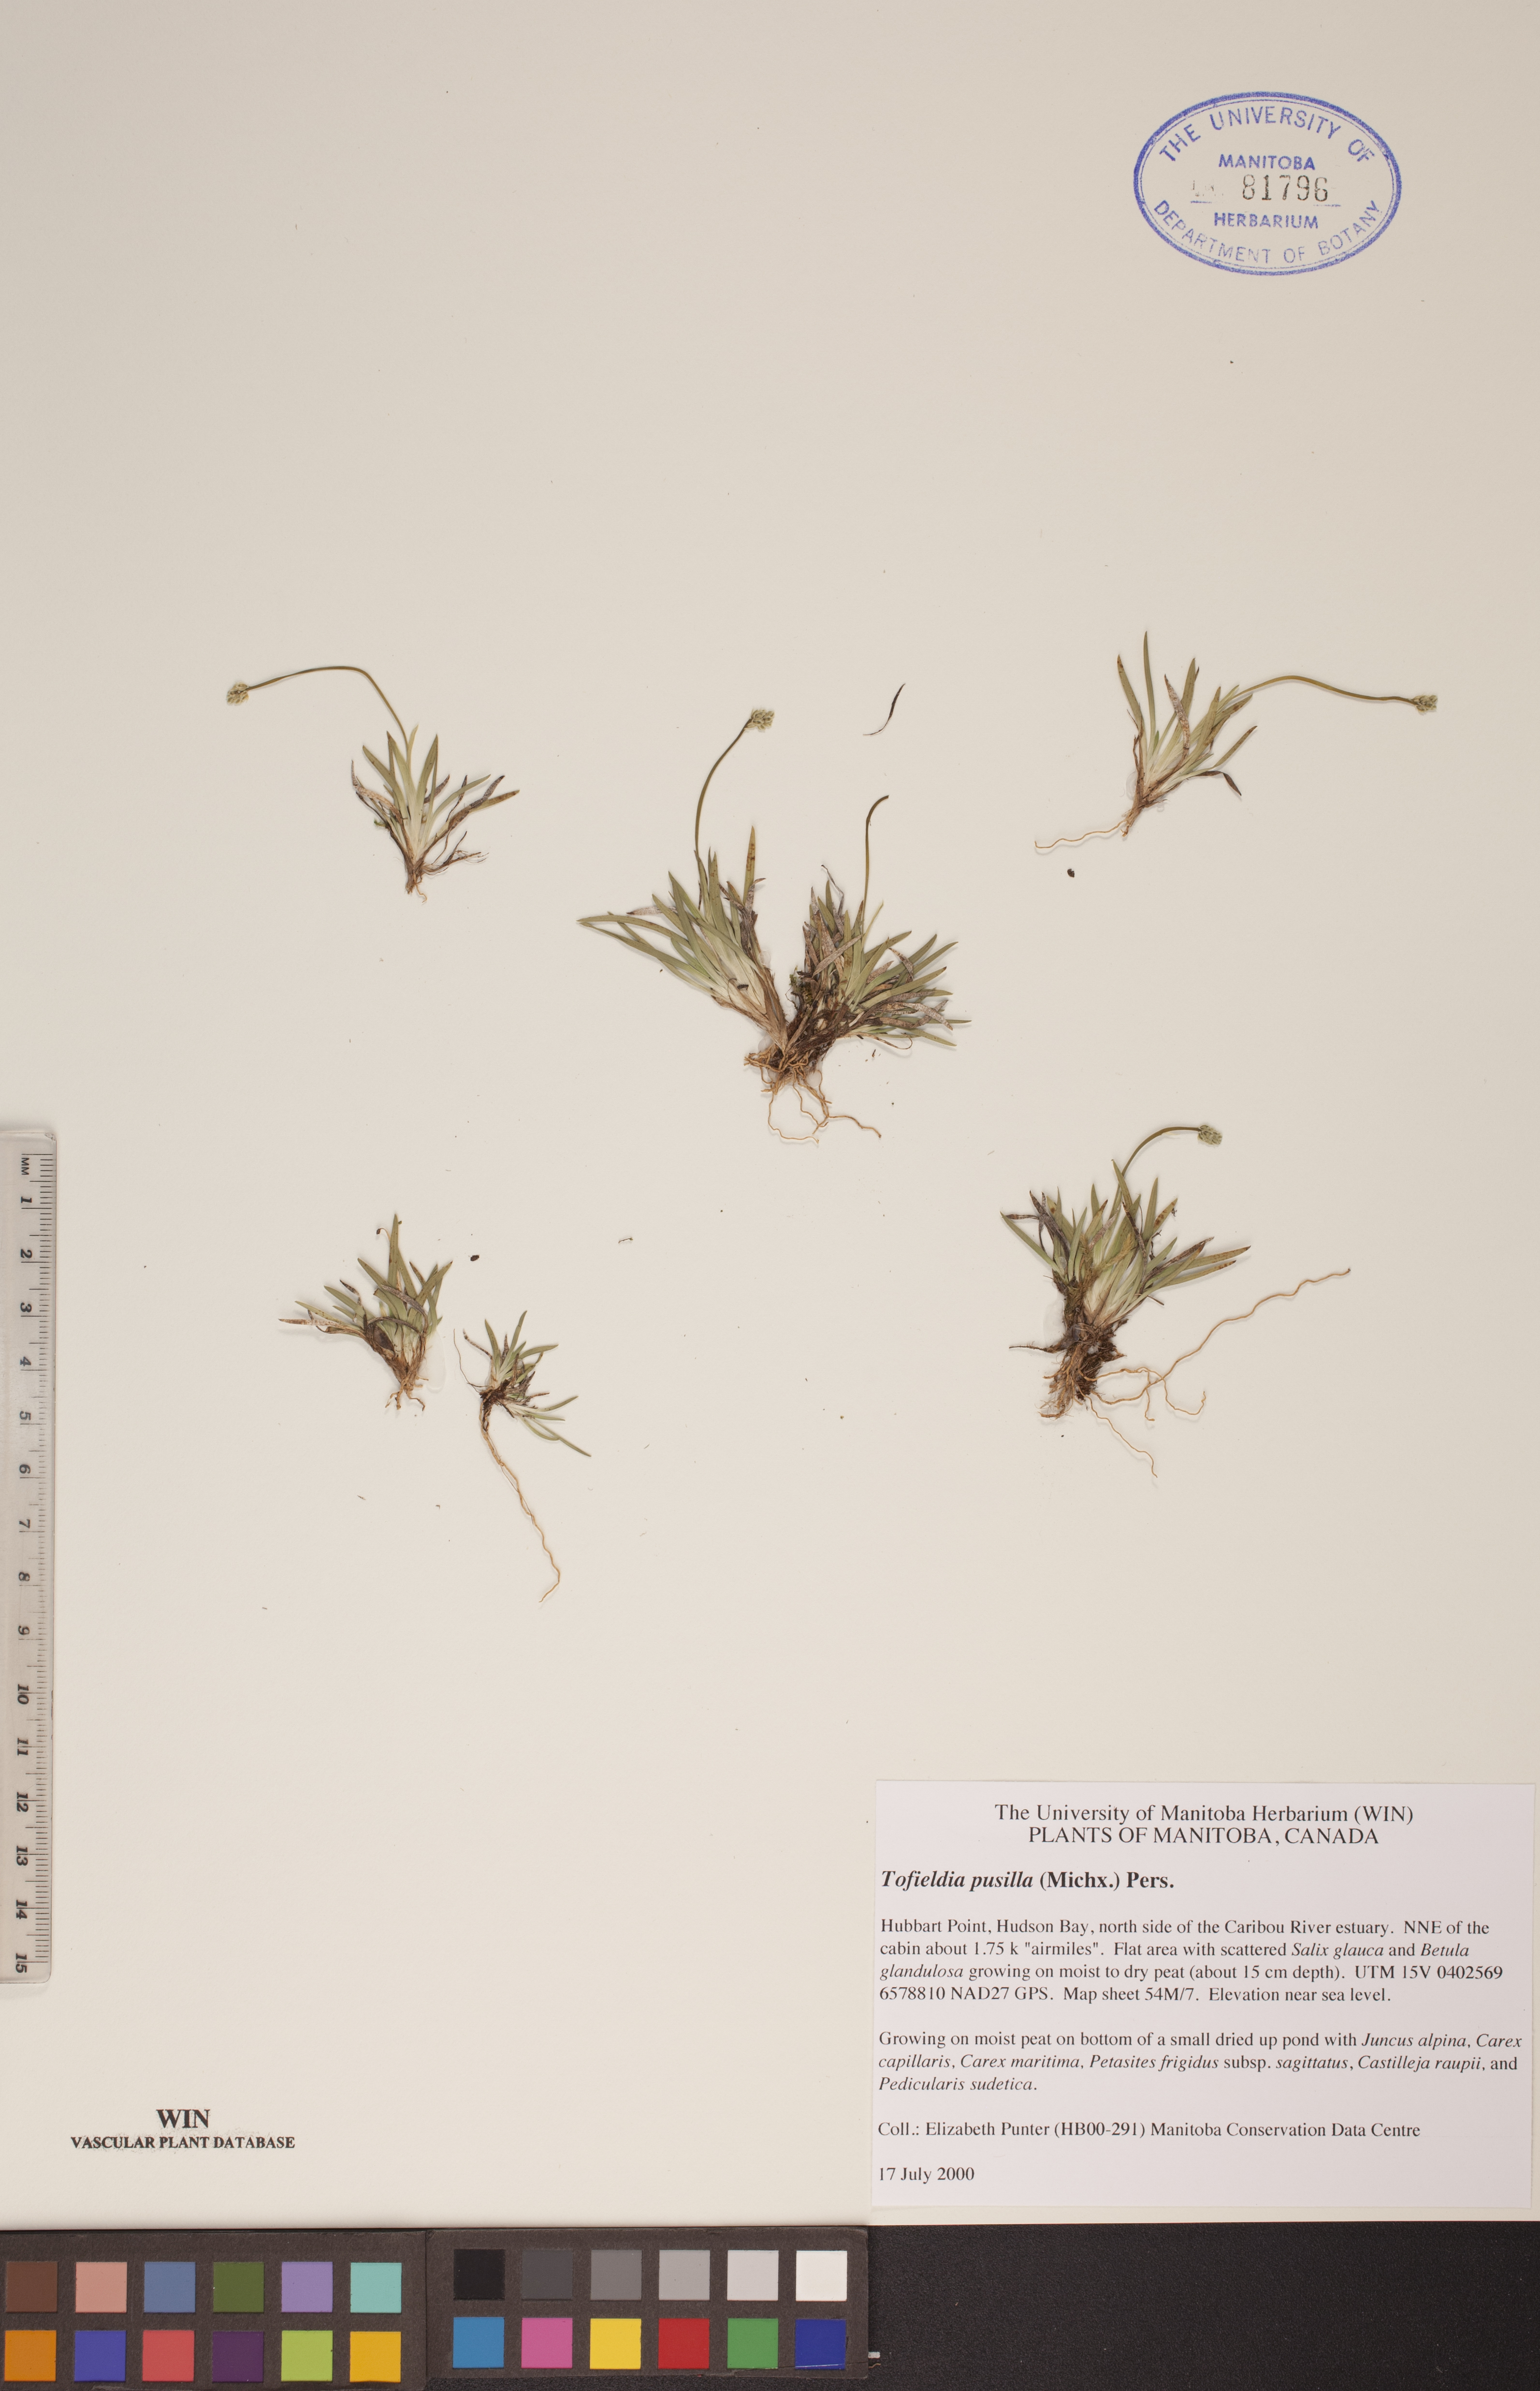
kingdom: Plantae
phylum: Tracheophyta
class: Liliopsida
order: Alismatales
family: Tofieldiaceae
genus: Tofieldia
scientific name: Tofieldia pusilla
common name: Scottish false asphodel
